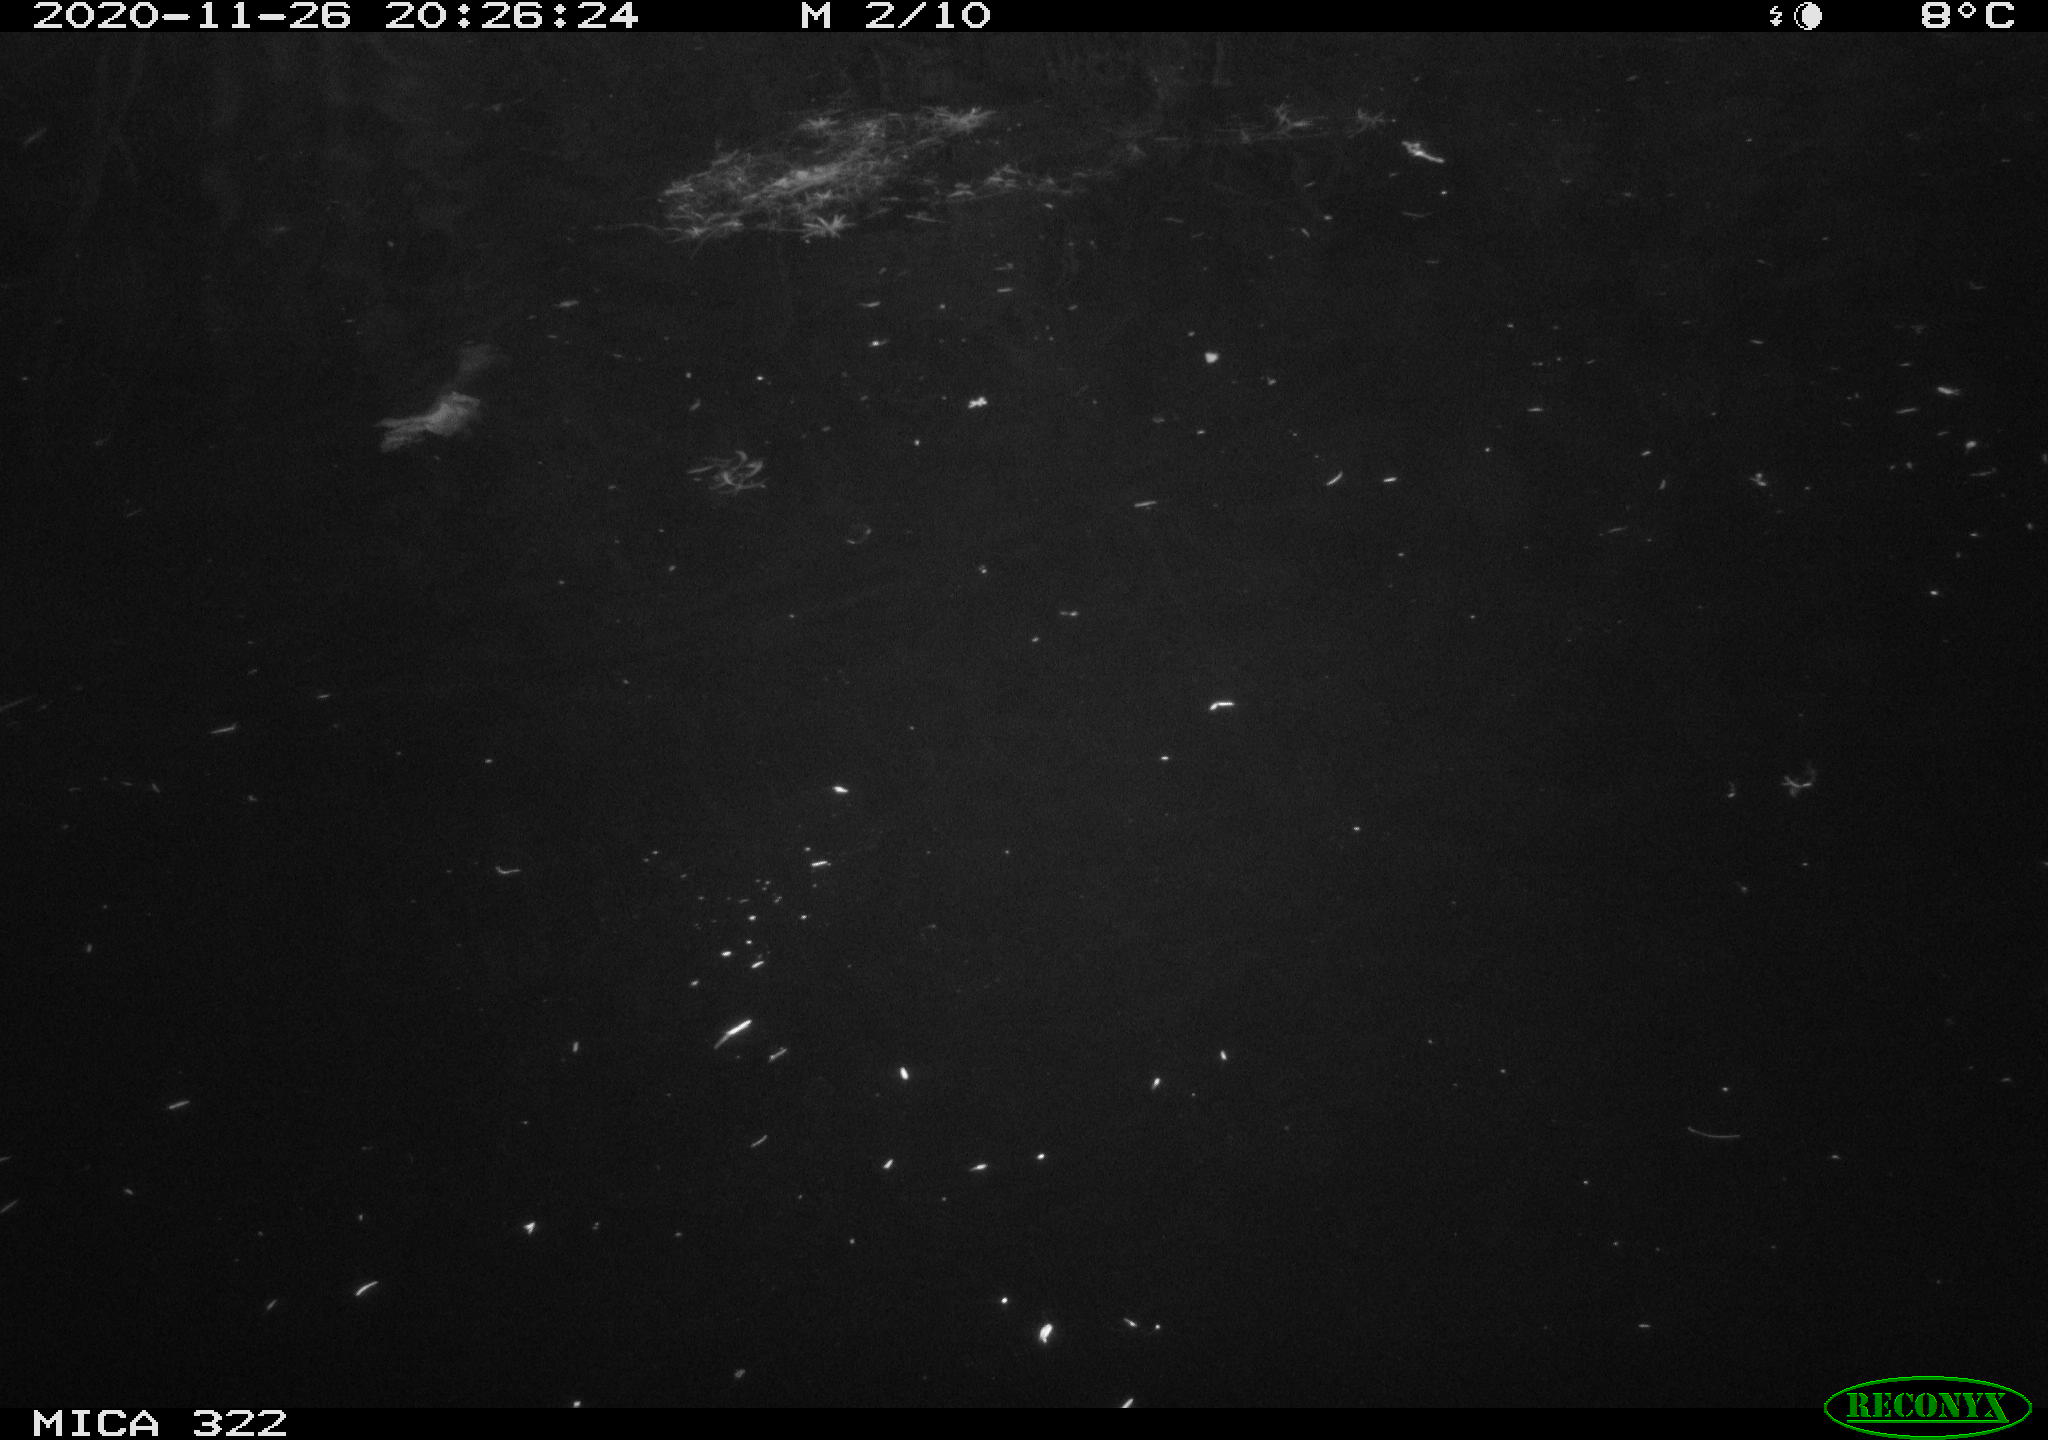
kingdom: Animalia
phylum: Chordata
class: Mammalia
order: Rodentia
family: Muridae
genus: Rattus
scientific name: Rattus norvegicus
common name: Brown rat
